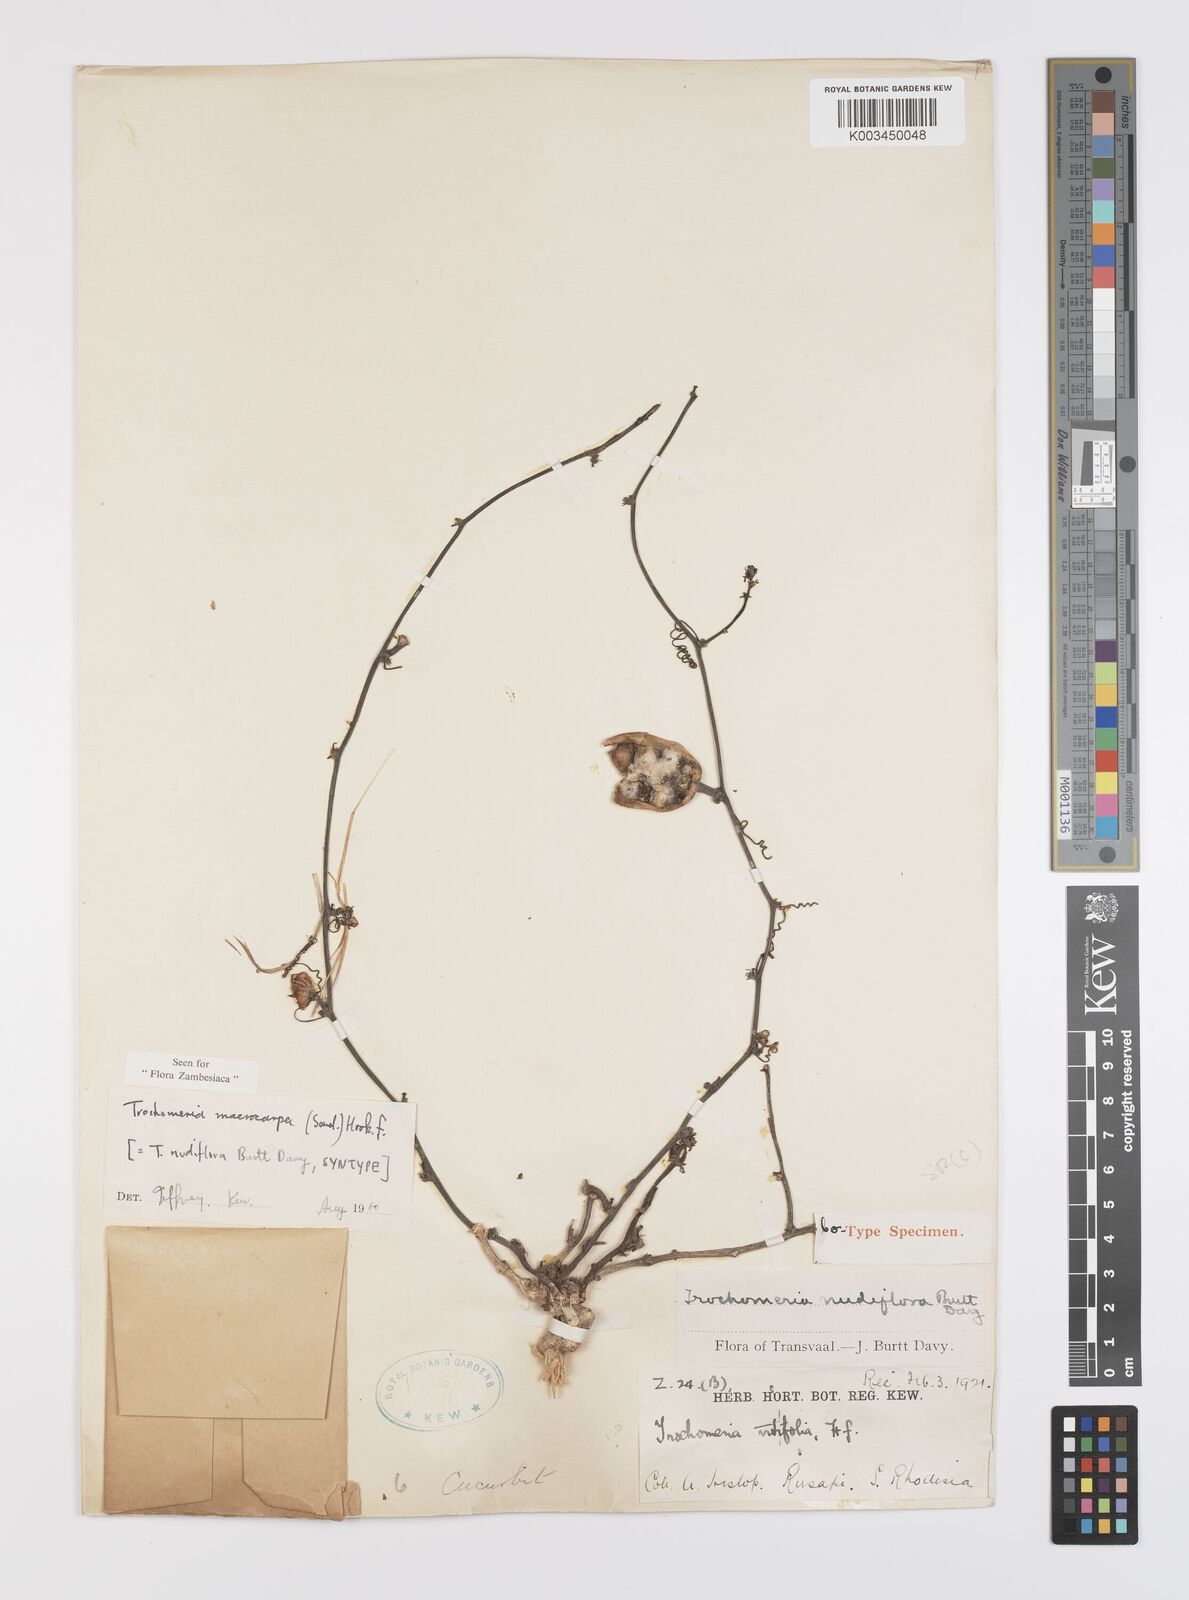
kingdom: Plantae
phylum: Tracheophyta
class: Magnoliopsida
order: Cucurbitales
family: Cucurbitaceae
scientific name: Cucurbitaceae
